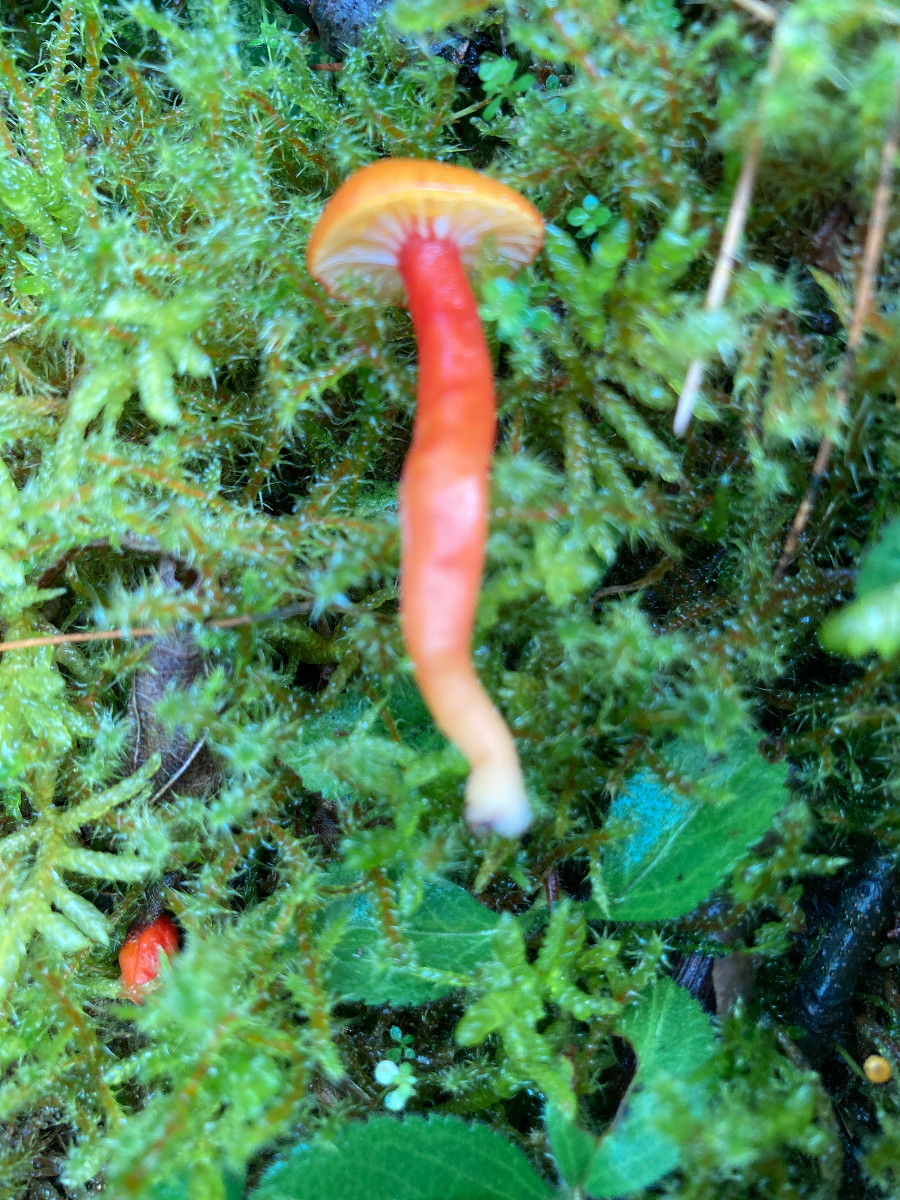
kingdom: Fungi
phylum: Basidiomycota
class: Agaricomycetes
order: Agaricales
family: Hygrophoraceae
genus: Hygrocybe
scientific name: Hygrocybe insipida
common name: liden vokshat
